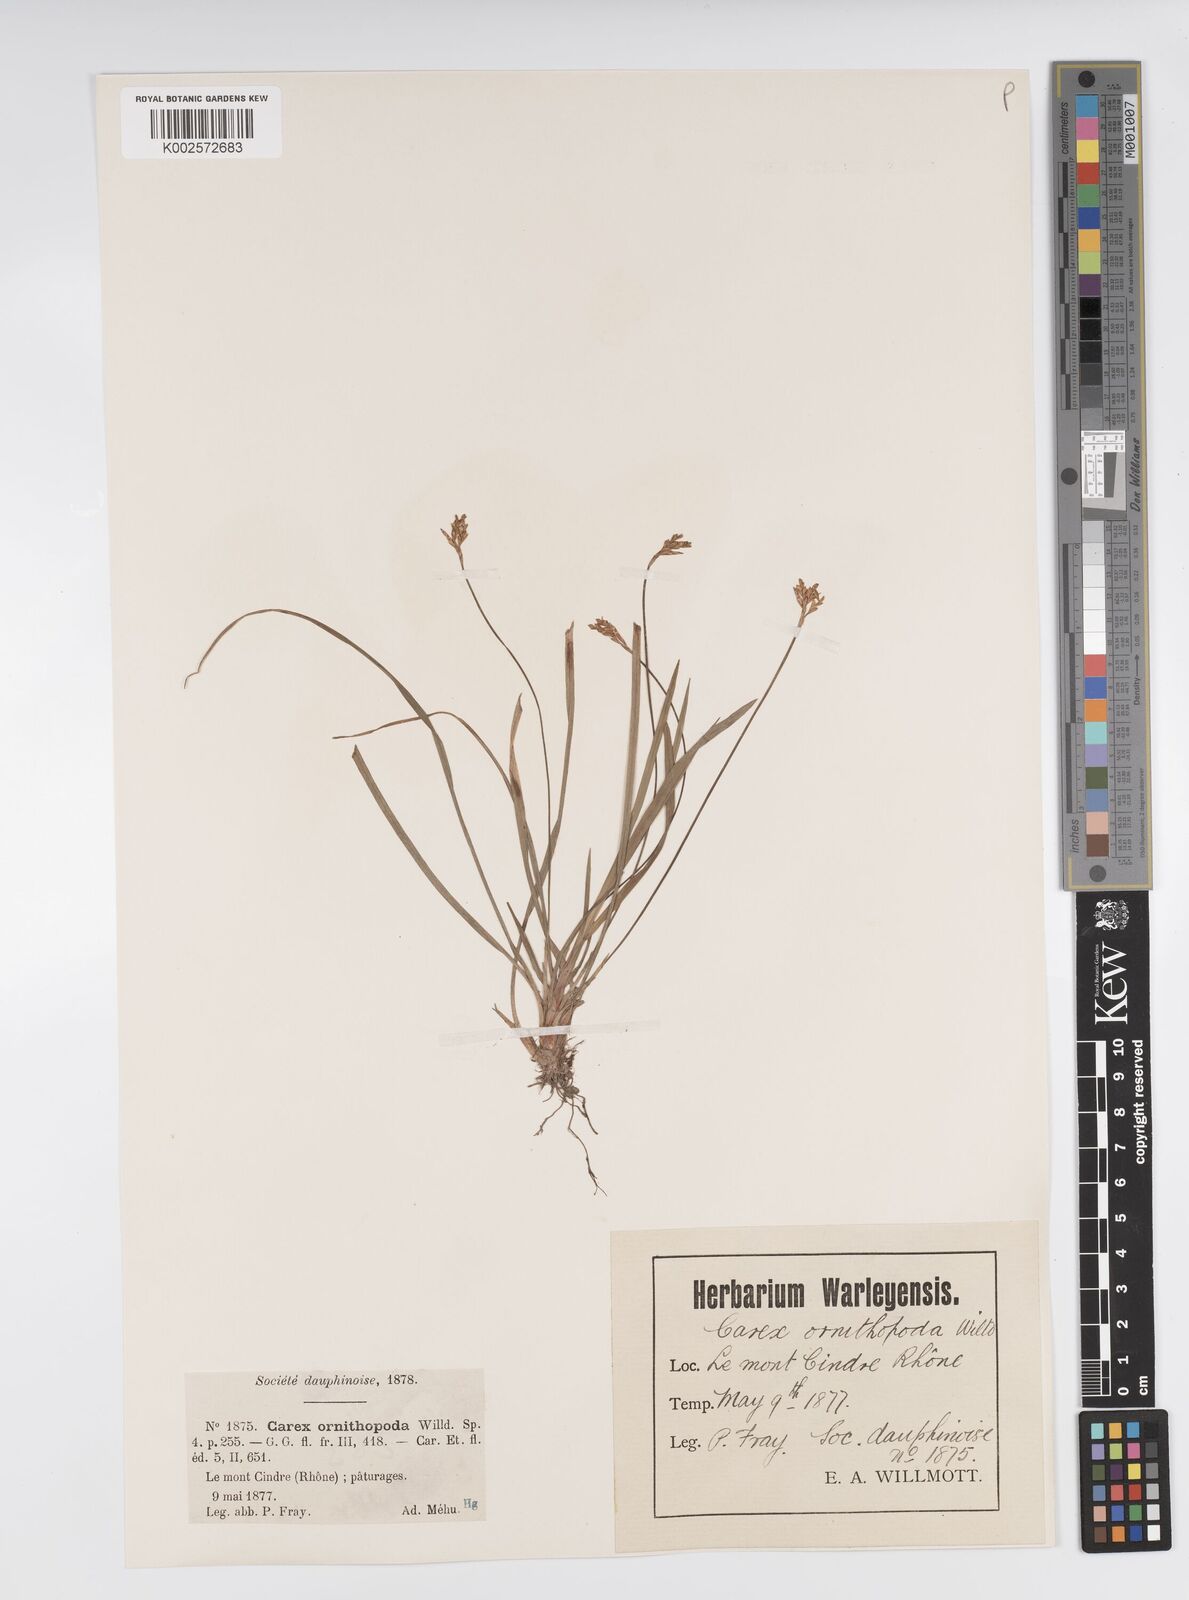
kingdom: Plantae
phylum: Tracheophyta
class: Liliopsida
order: Poales
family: Cyperaceae
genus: Carex
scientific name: Carex ornithopoda
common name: Bird's-foot sedge
